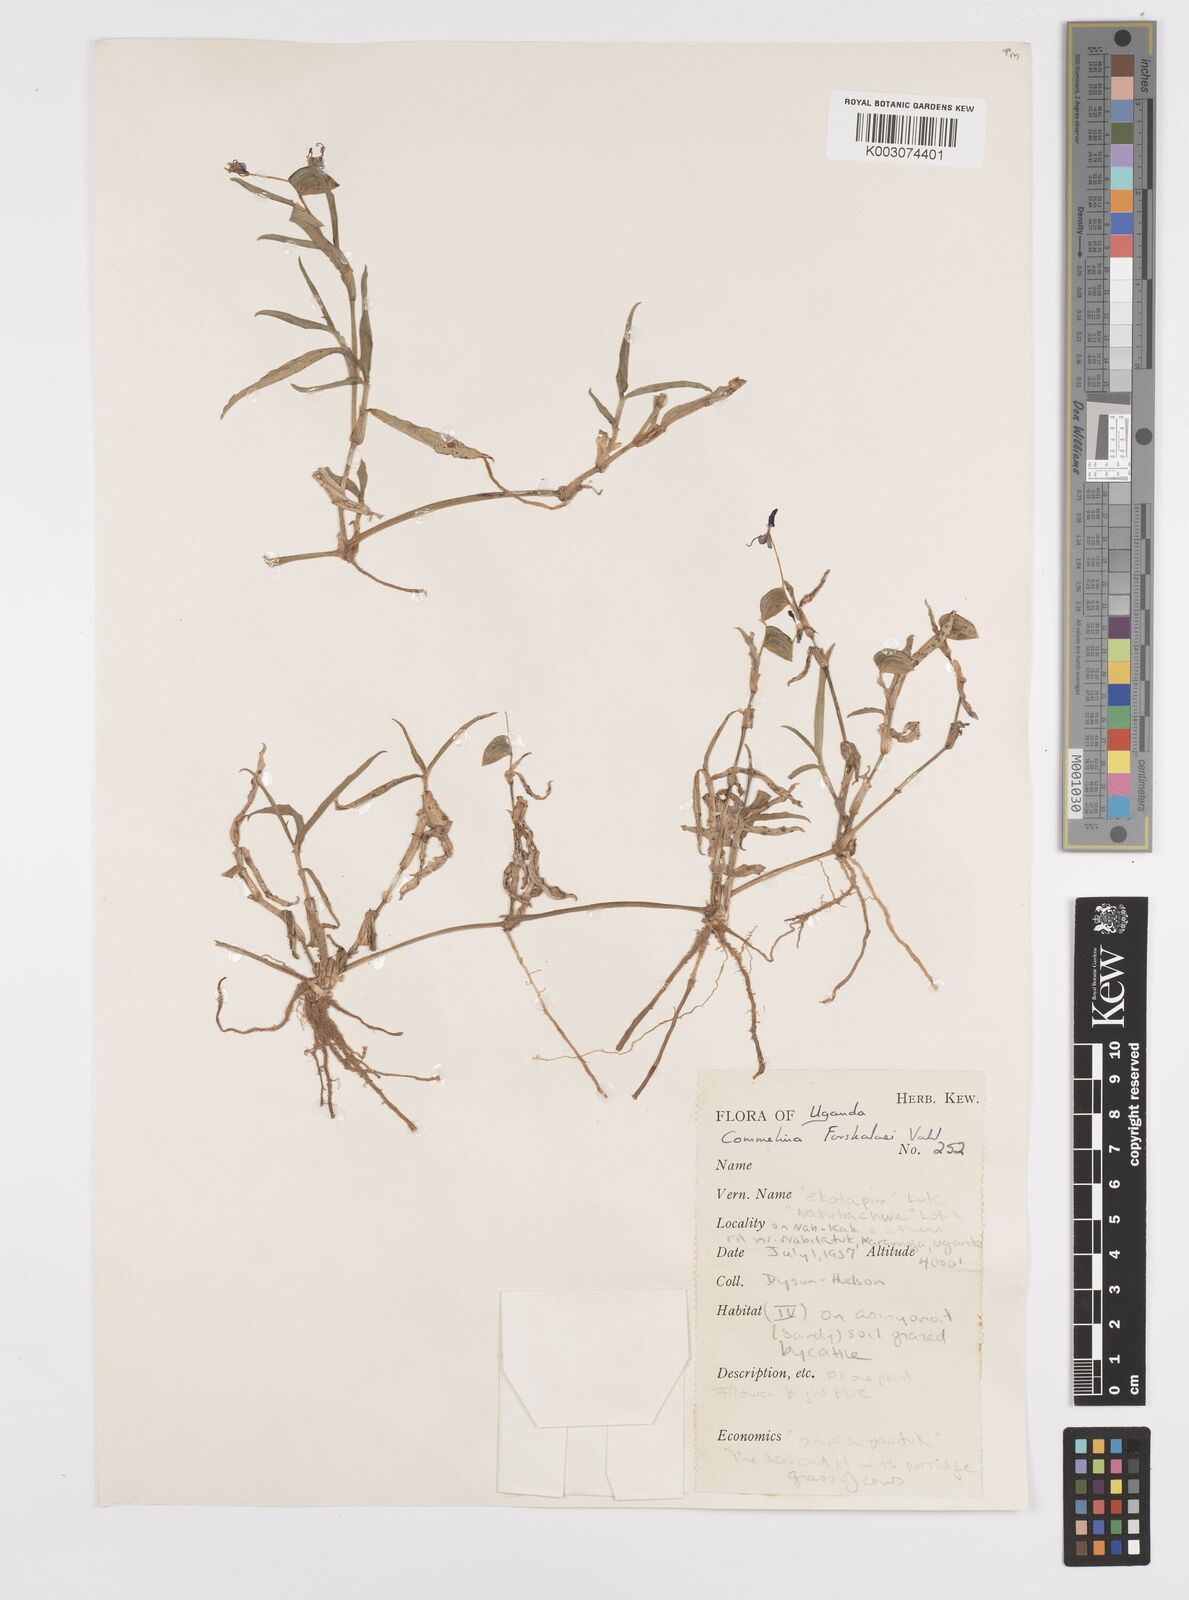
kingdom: Plantae
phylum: Tracheophyta
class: Liliopsida
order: Commelinales
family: Commelinaceae
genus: Commelina
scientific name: Commelina forskaolii
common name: Rat's ear
